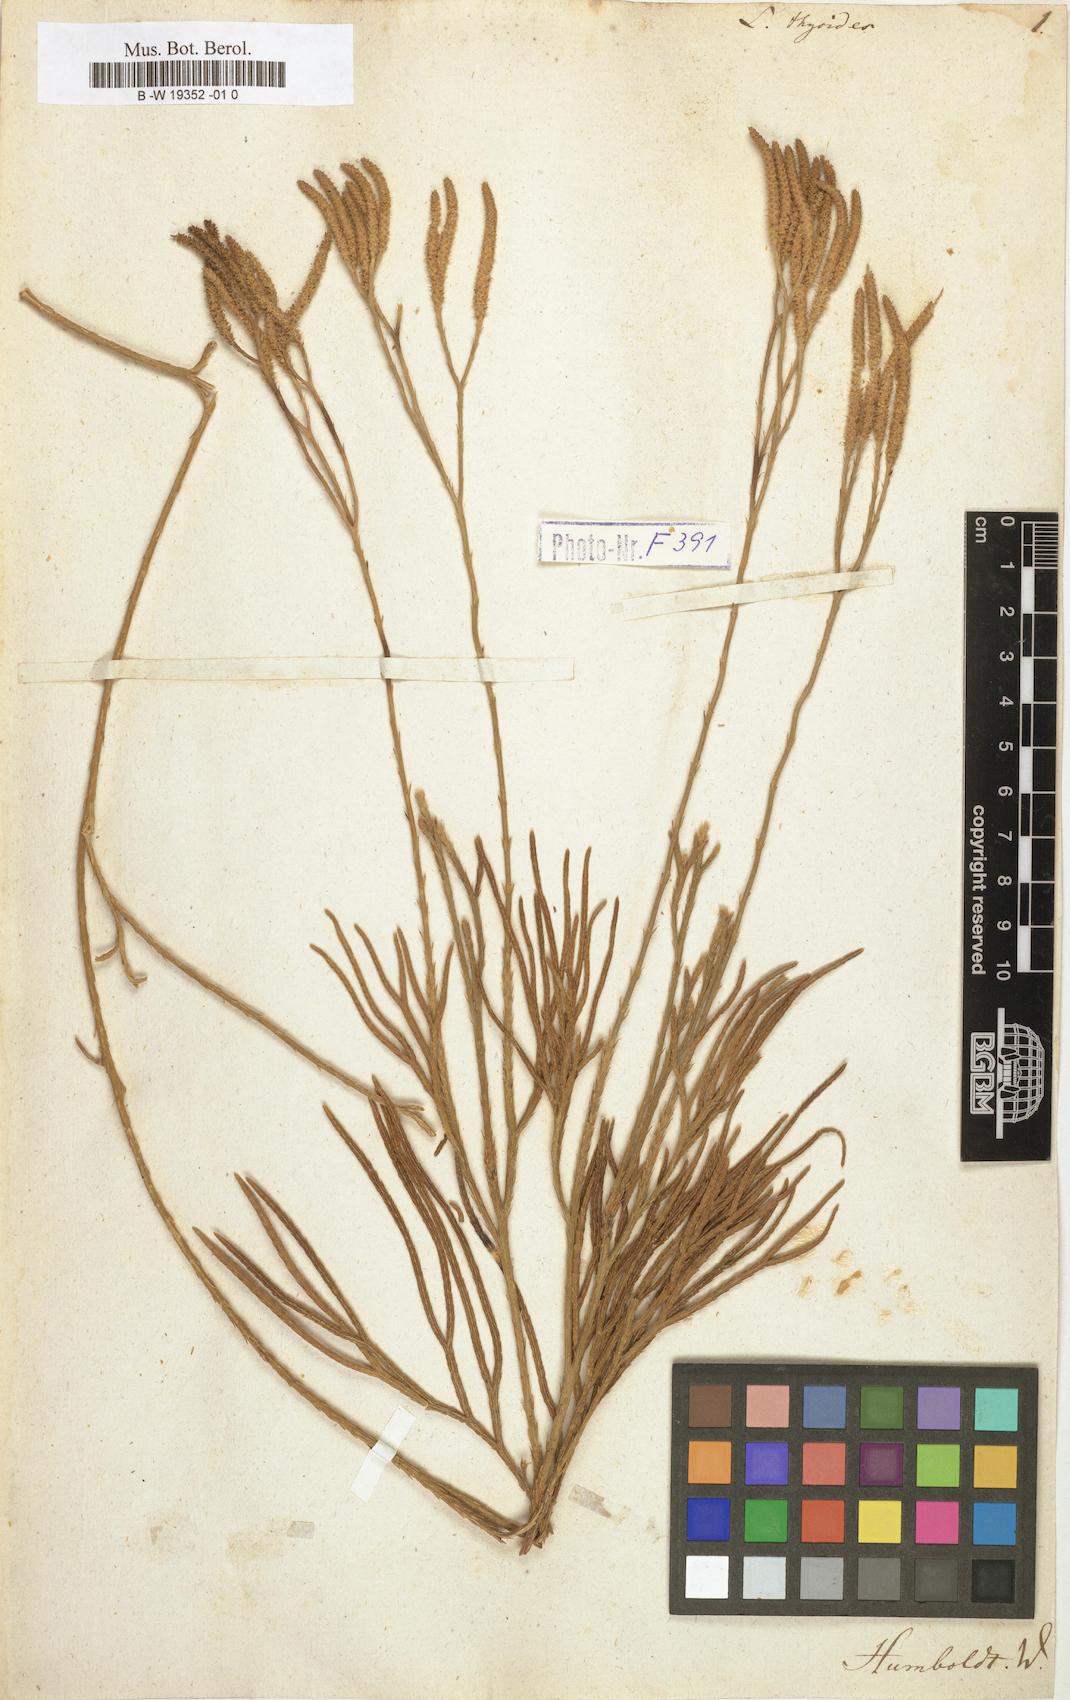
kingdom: Plantae
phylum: Tracheophyta
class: Lycopodiopsida
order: Lycopodiales
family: Lycopodiaceae
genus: Diphasiastrum
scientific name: Diphasiastrum thyoides
